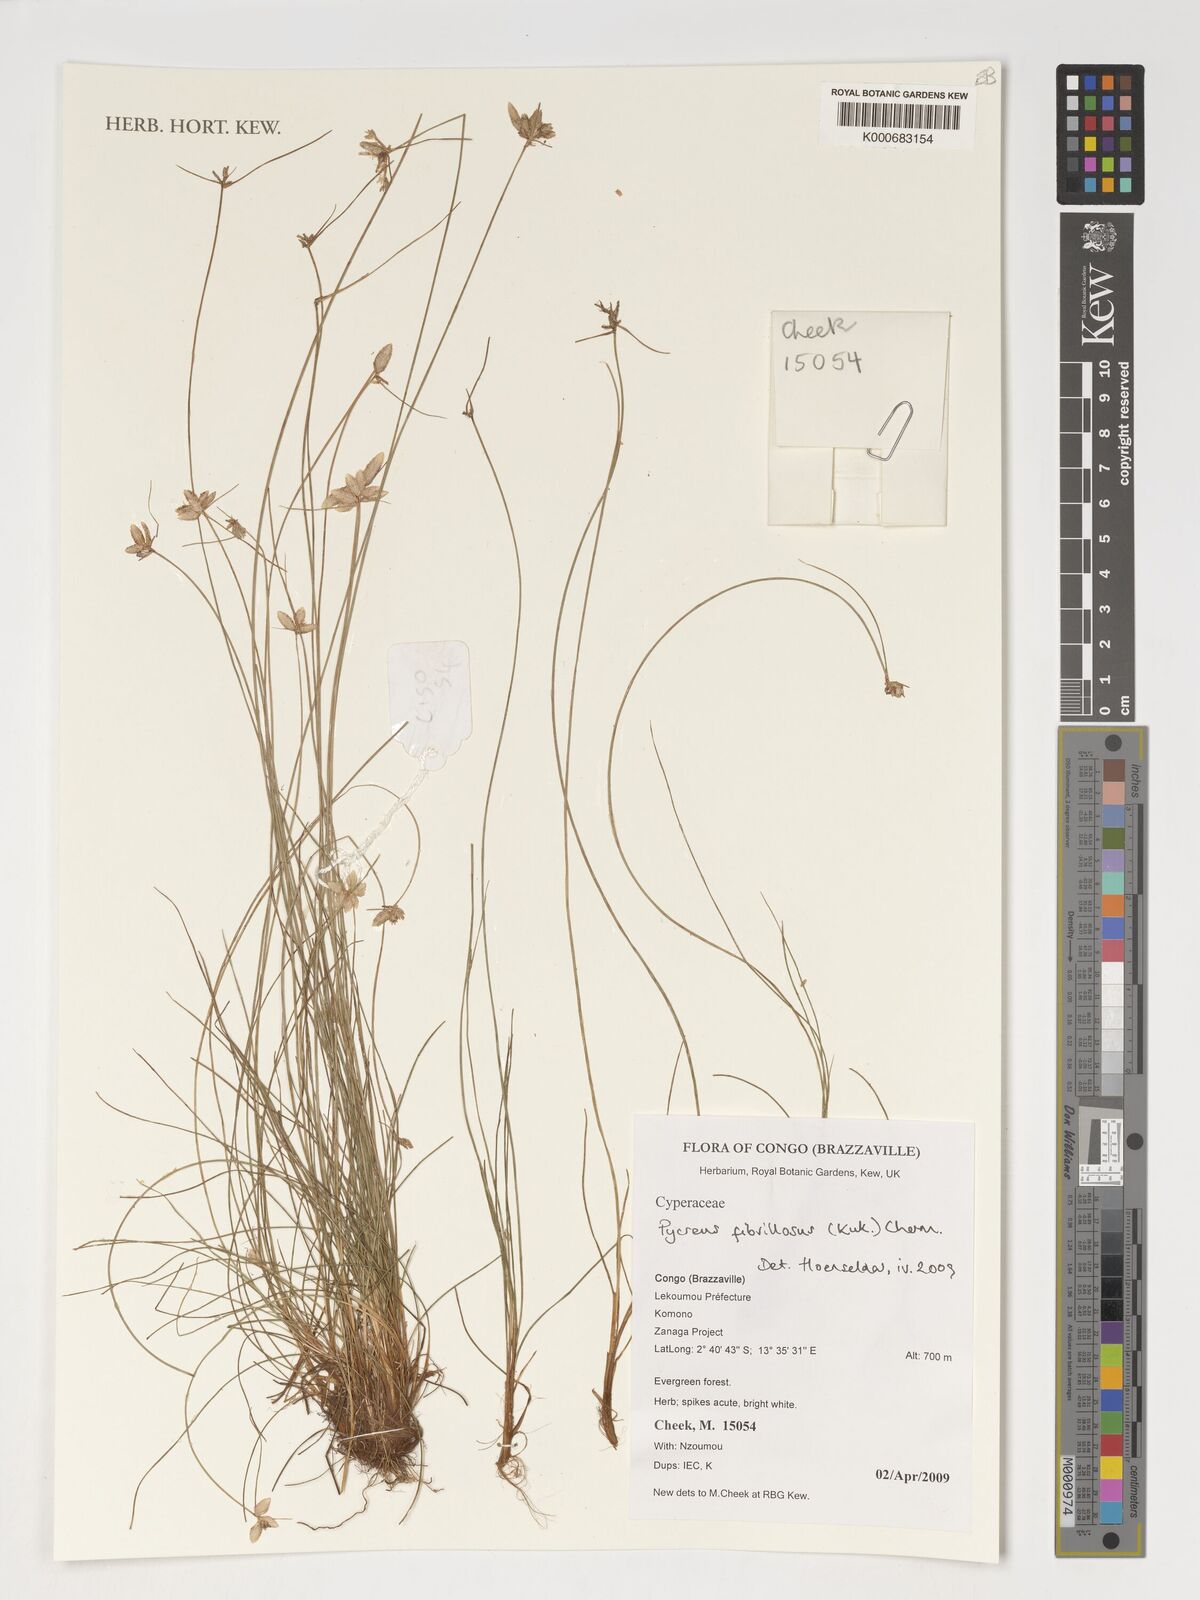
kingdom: Plantae
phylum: Tracheophyta
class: Liliopsida
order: Poales
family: Cyperaceae
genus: Cyperus
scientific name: Cyperus nigricans
